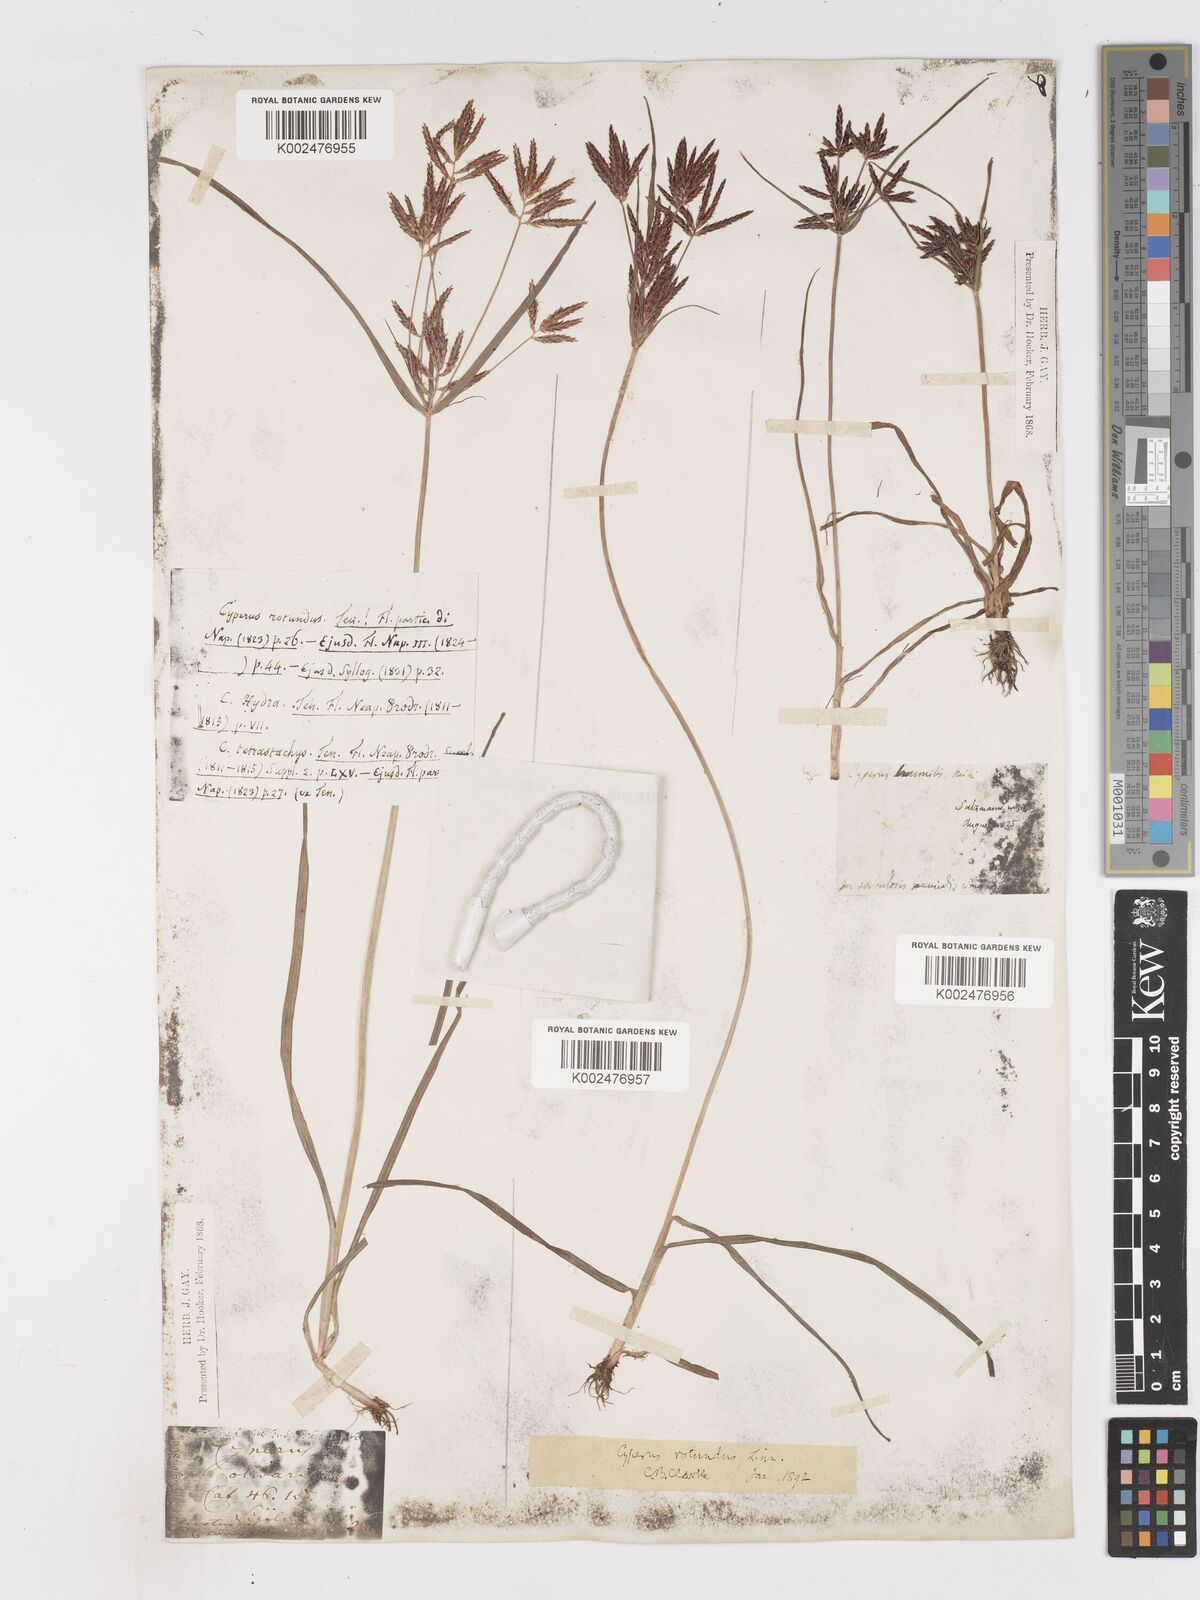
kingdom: Plantae
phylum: Tracheophyta
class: Liliopsida
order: Poales
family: Cyperaceae
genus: Cyperus
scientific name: Cyperus rotundus
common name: Nutgrass
